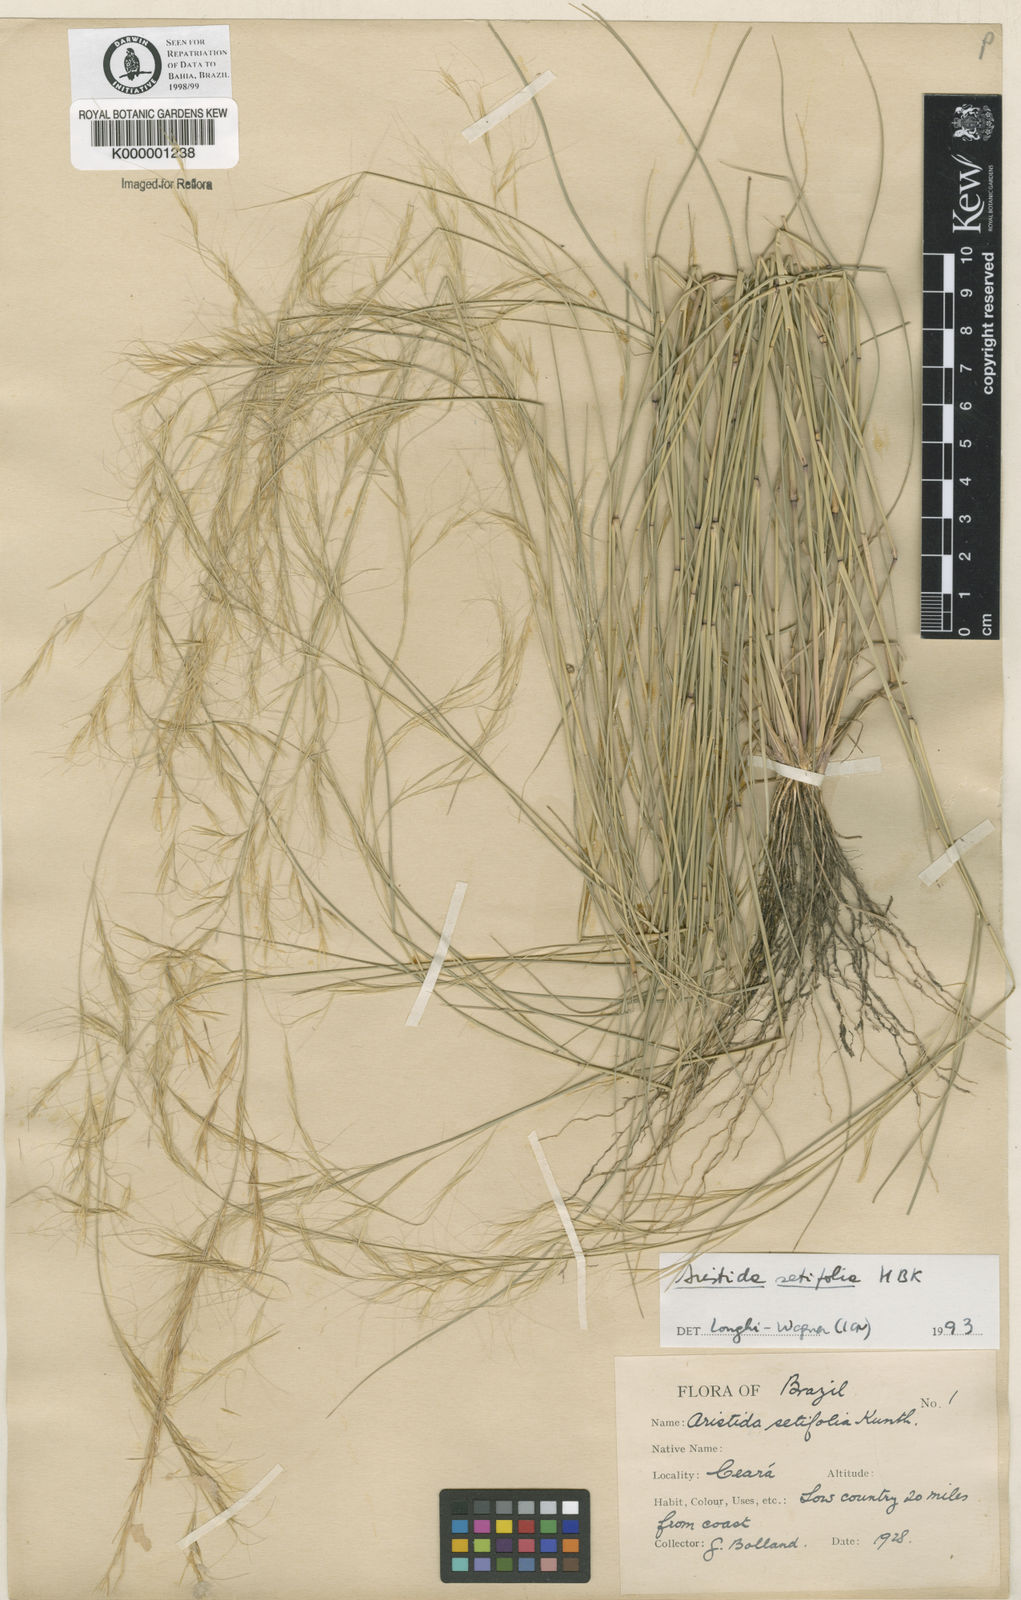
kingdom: Plantae
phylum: Tracheophyta
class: Liliopsida
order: Poales
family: Poaceae
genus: Aristida
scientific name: Aristida setifolia
